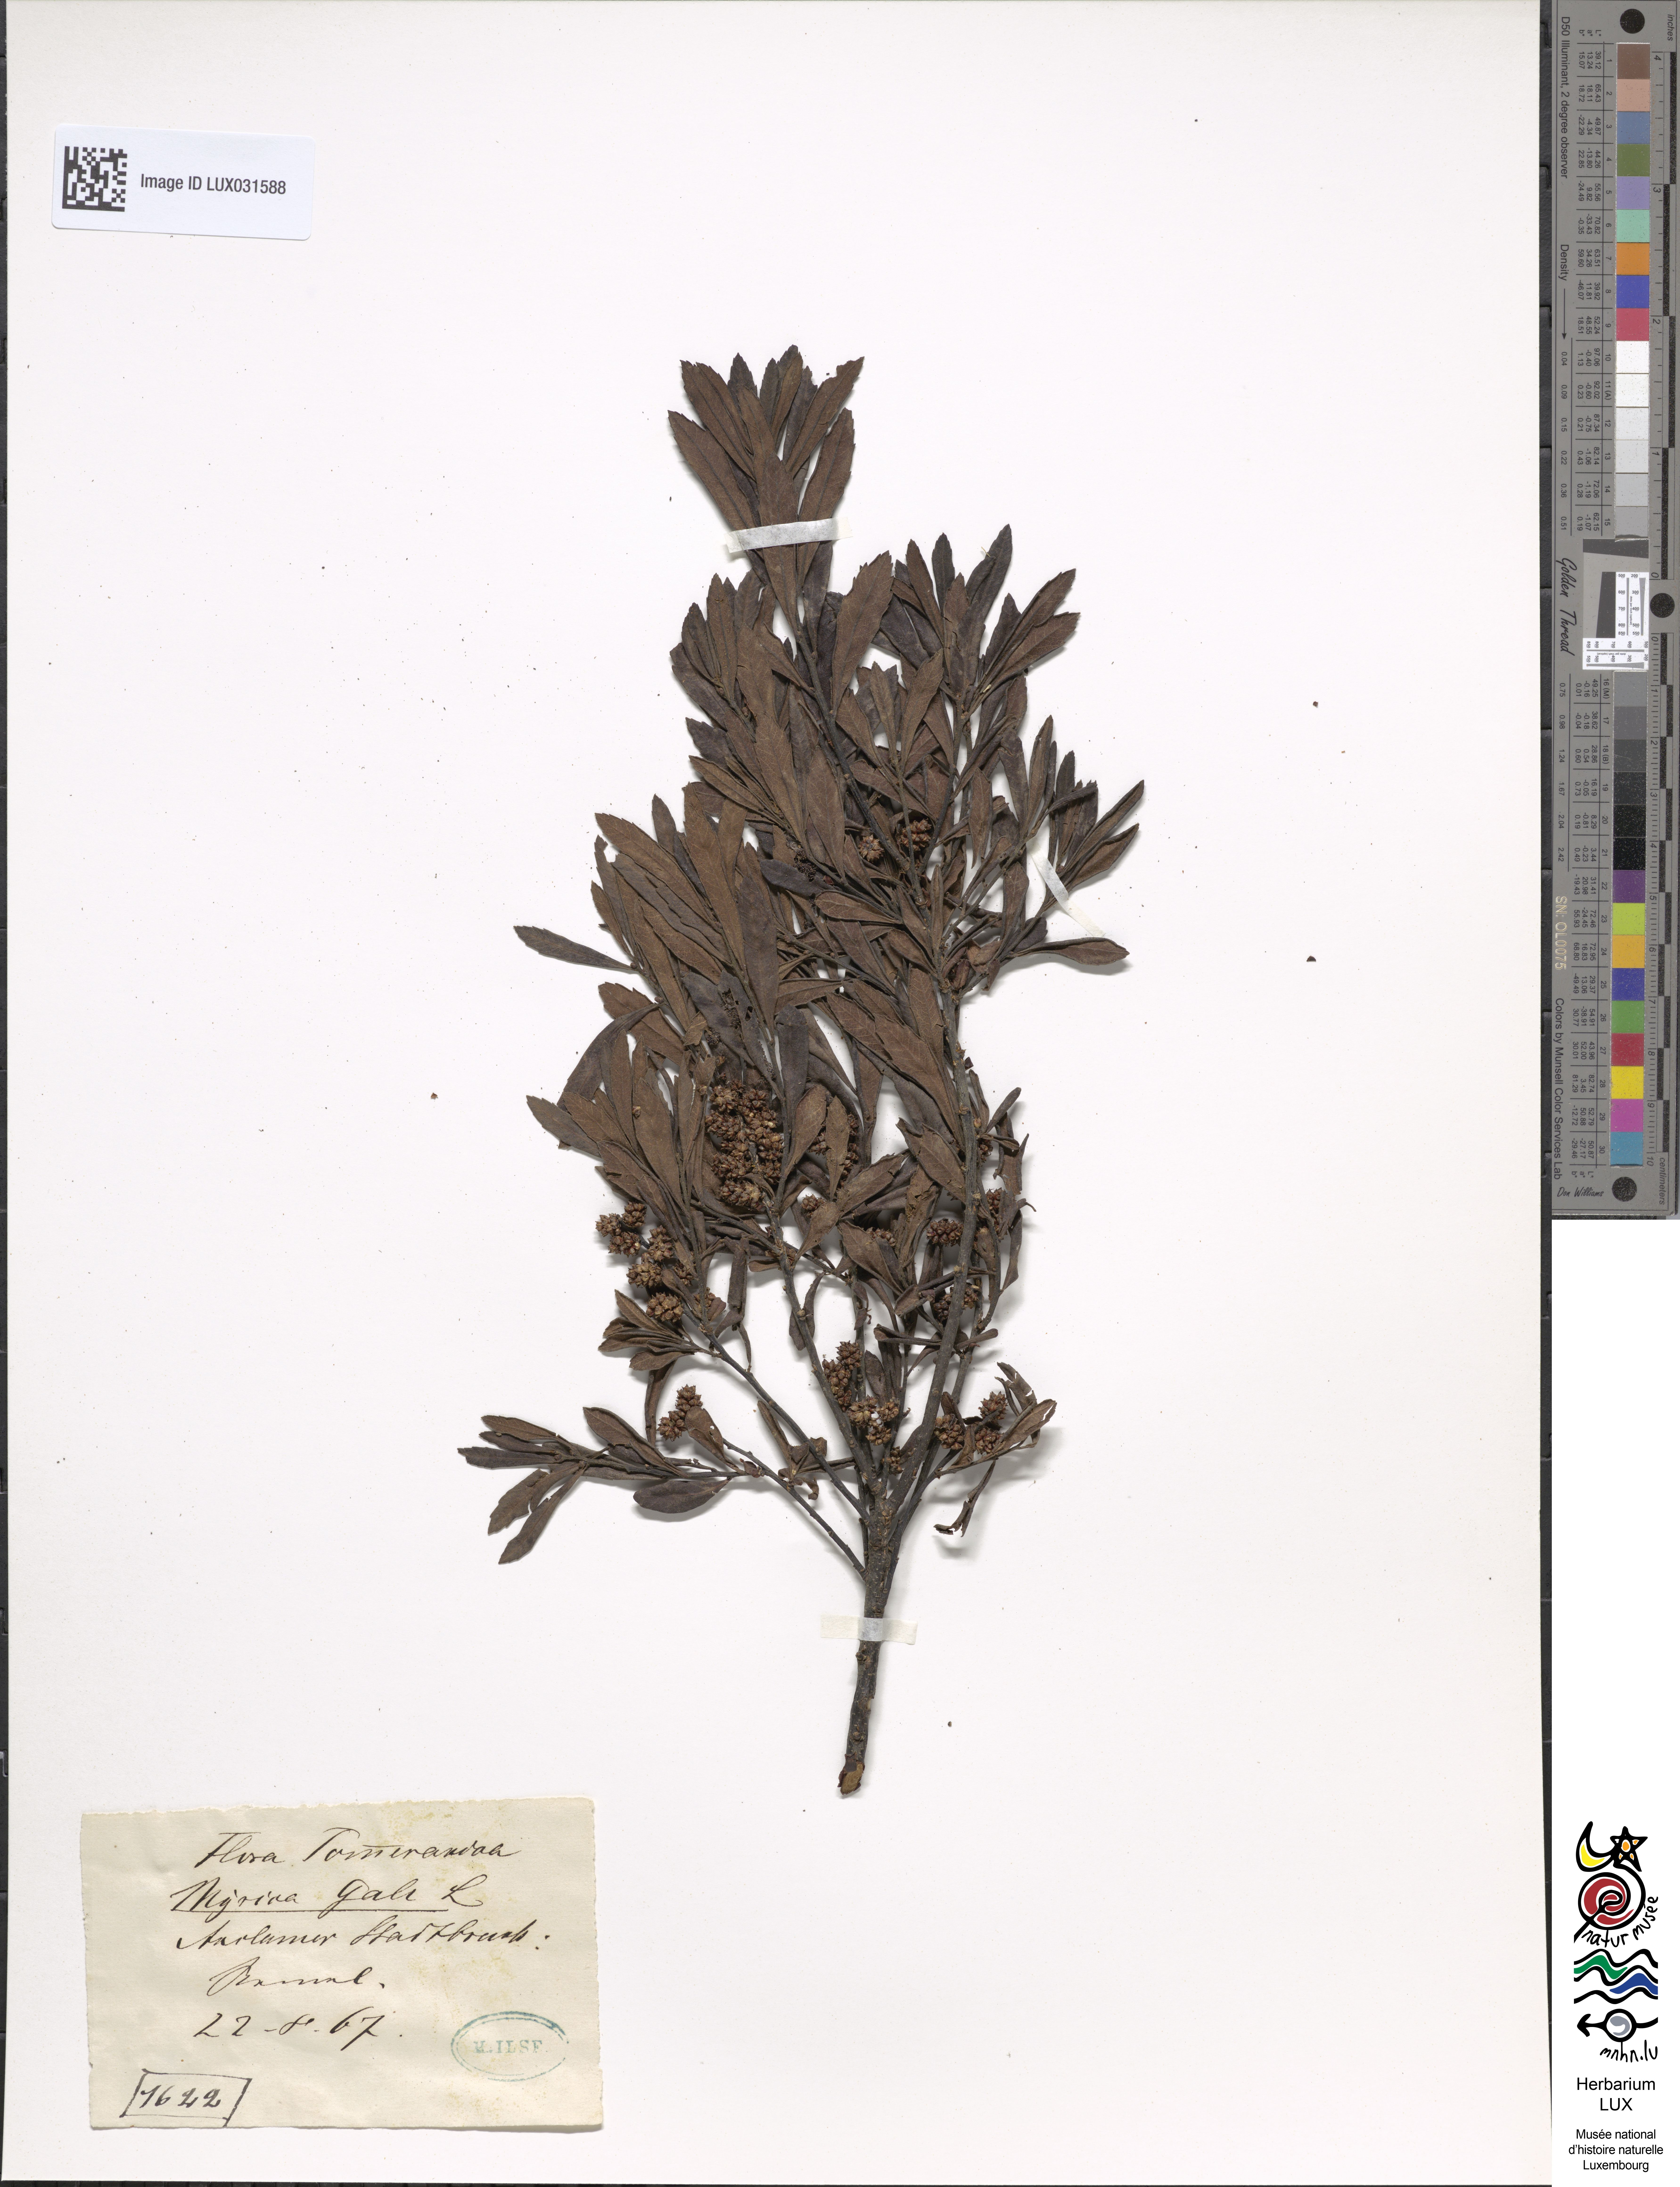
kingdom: Plantae
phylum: Tracheophyta
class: Magnoliopsida
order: Fagales
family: Myricaceae
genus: Myrica
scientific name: Myrica gale
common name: Sweet gale
